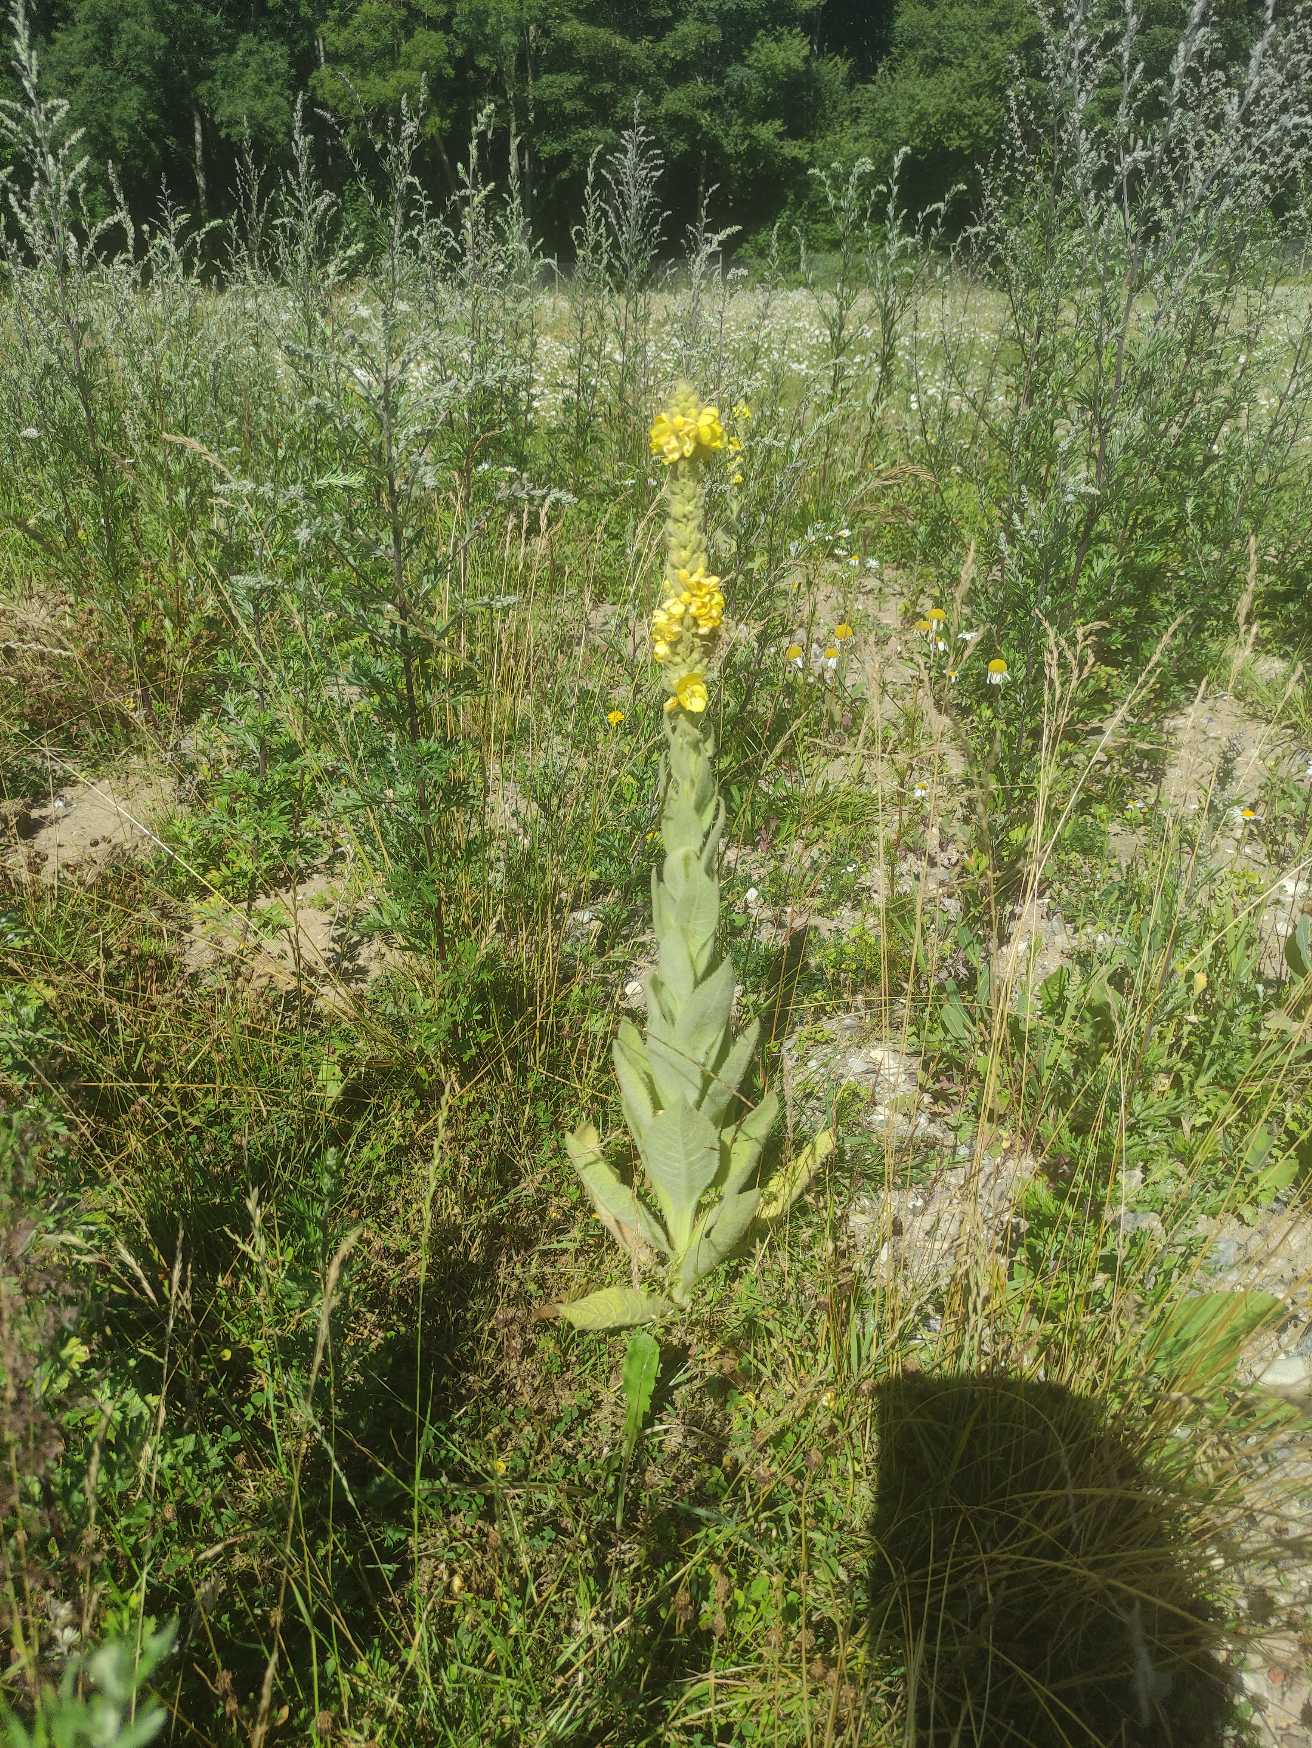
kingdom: Plantae
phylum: Tracheophyta
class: Magnoliopsida
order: Lamiales
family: Scrophulariaceae
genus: Verbascum
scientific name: Verbascum thapsus
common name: Filtbladet kongelys
